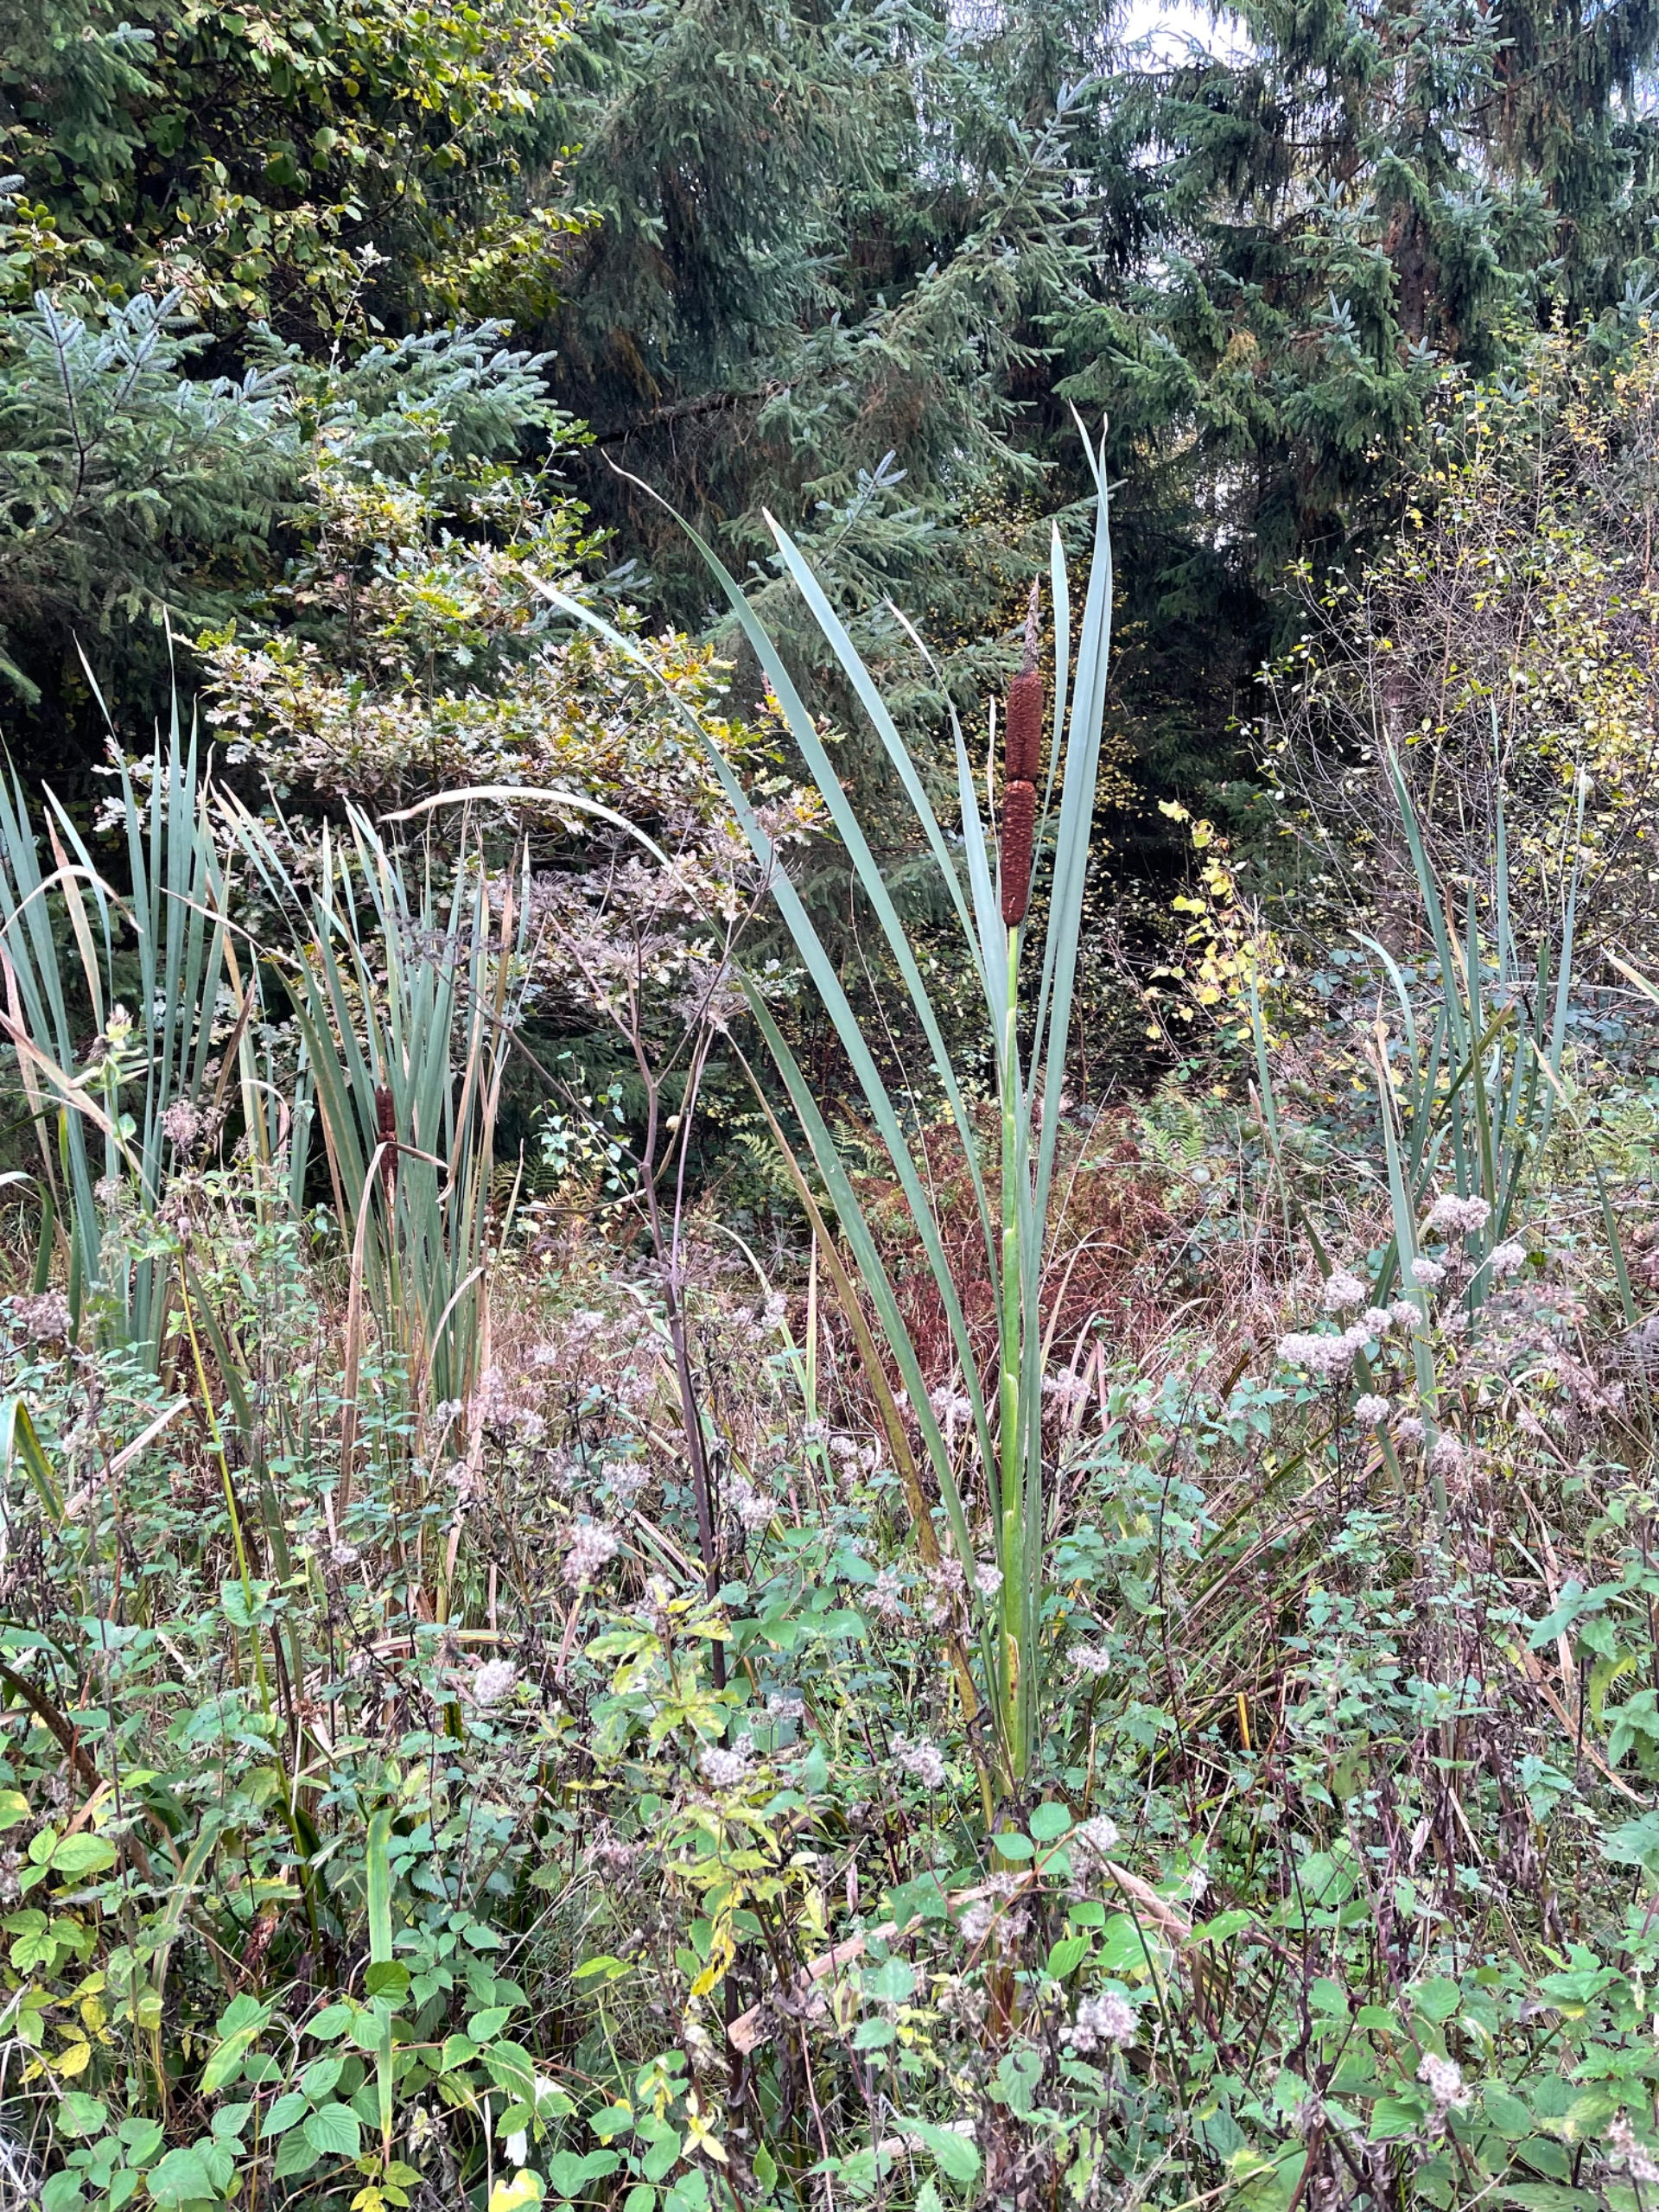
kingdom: Plantae
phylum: Tracheophyta
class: Liliopsida
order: Poales
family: Typhaceae
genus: Typha
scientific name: Typha latifolia
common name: Bredbladet dunhammer
